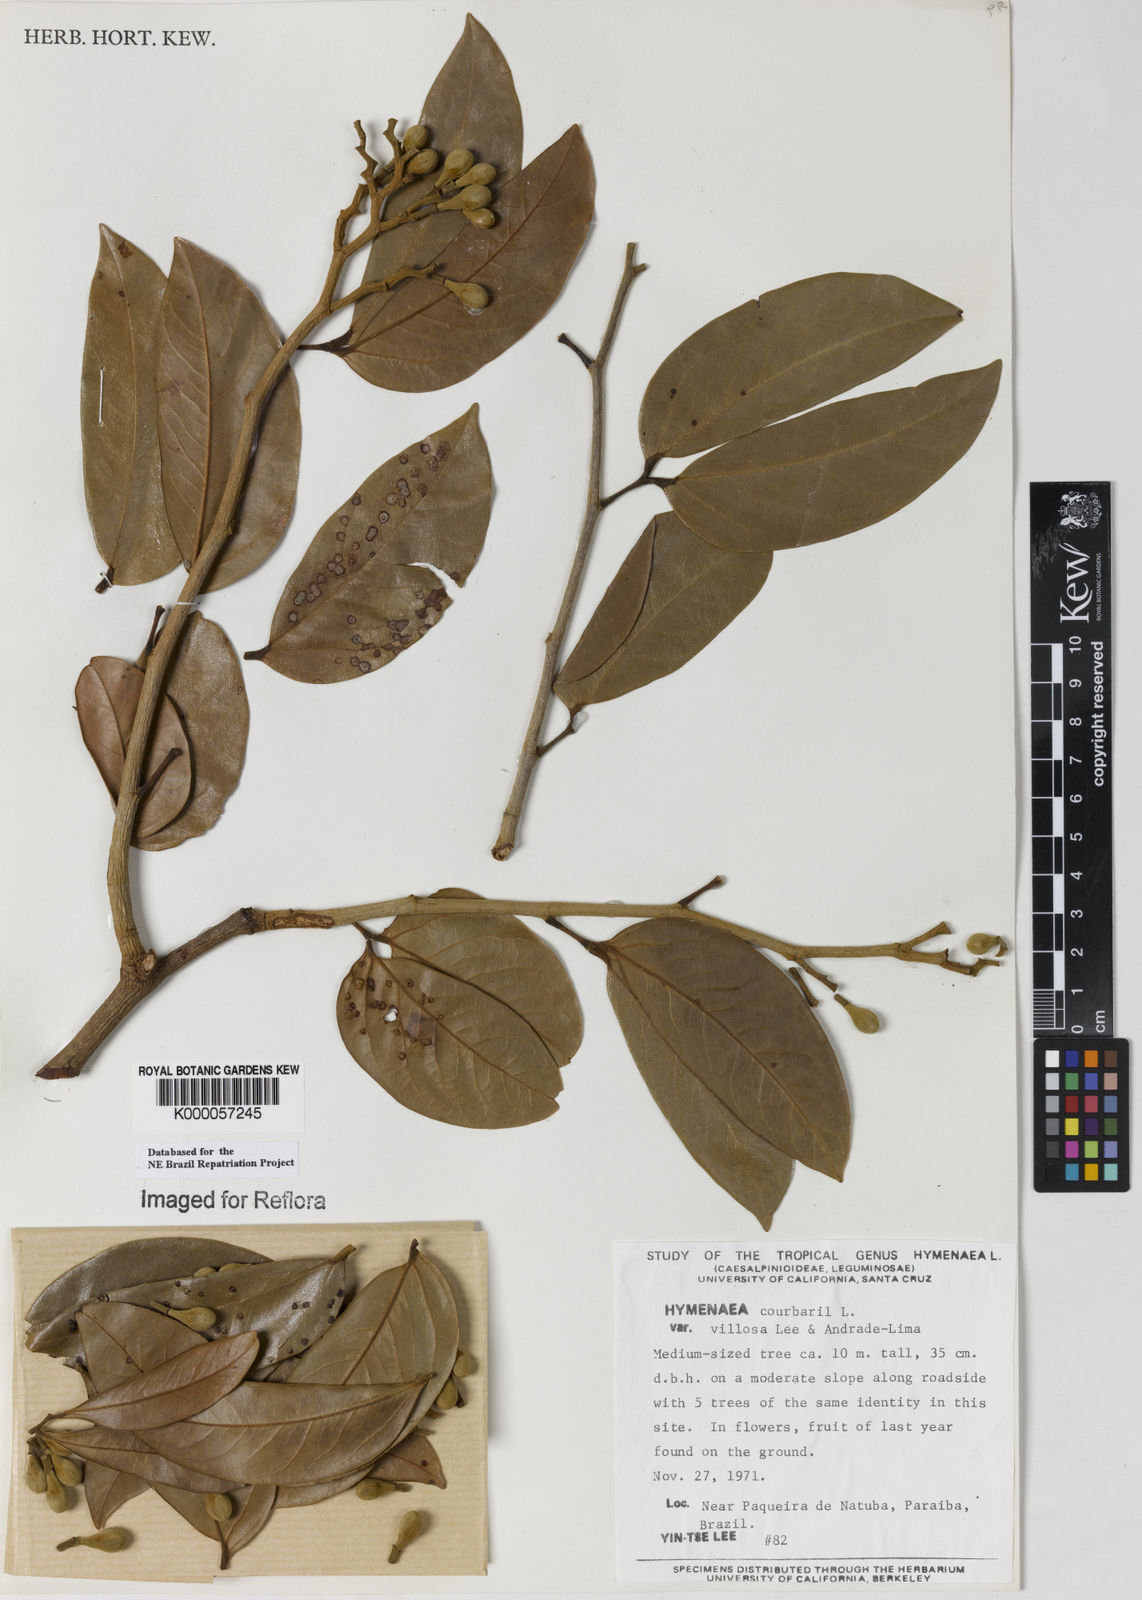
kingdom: Plantae
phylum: Tracheophyta
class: Magnoliopsida
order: Fabales
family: Fabaceae
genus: Hymenaea
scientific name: Hymenaea courbaril
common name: Brazilian copal
